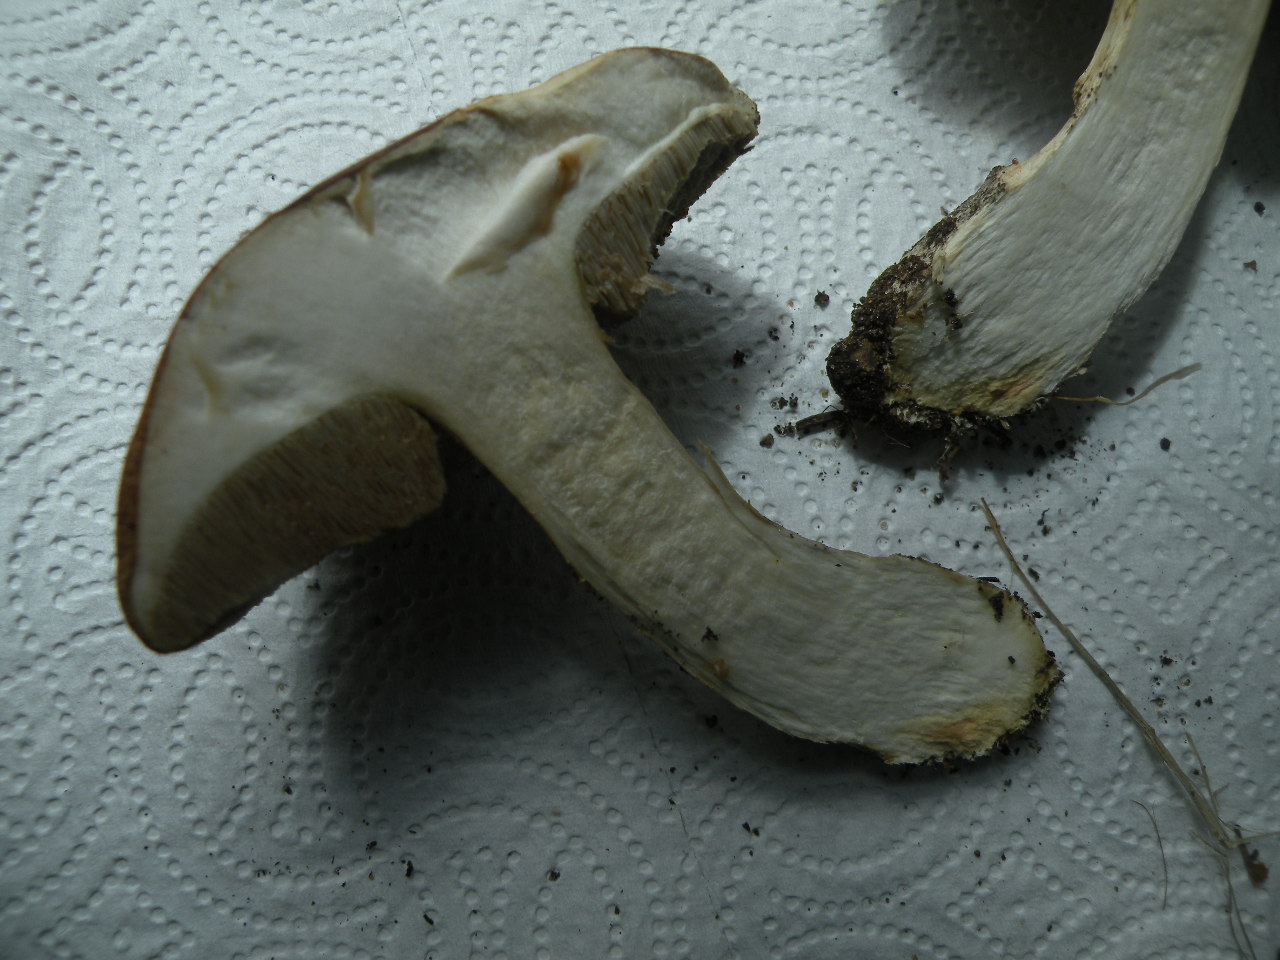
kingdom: Fungi
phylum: Basidiomycota
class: Agaricomycetes
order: Boletales
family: Boletaceae
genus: Leccinum
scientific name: Leccinum scabrum
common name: brun skælrørhat
